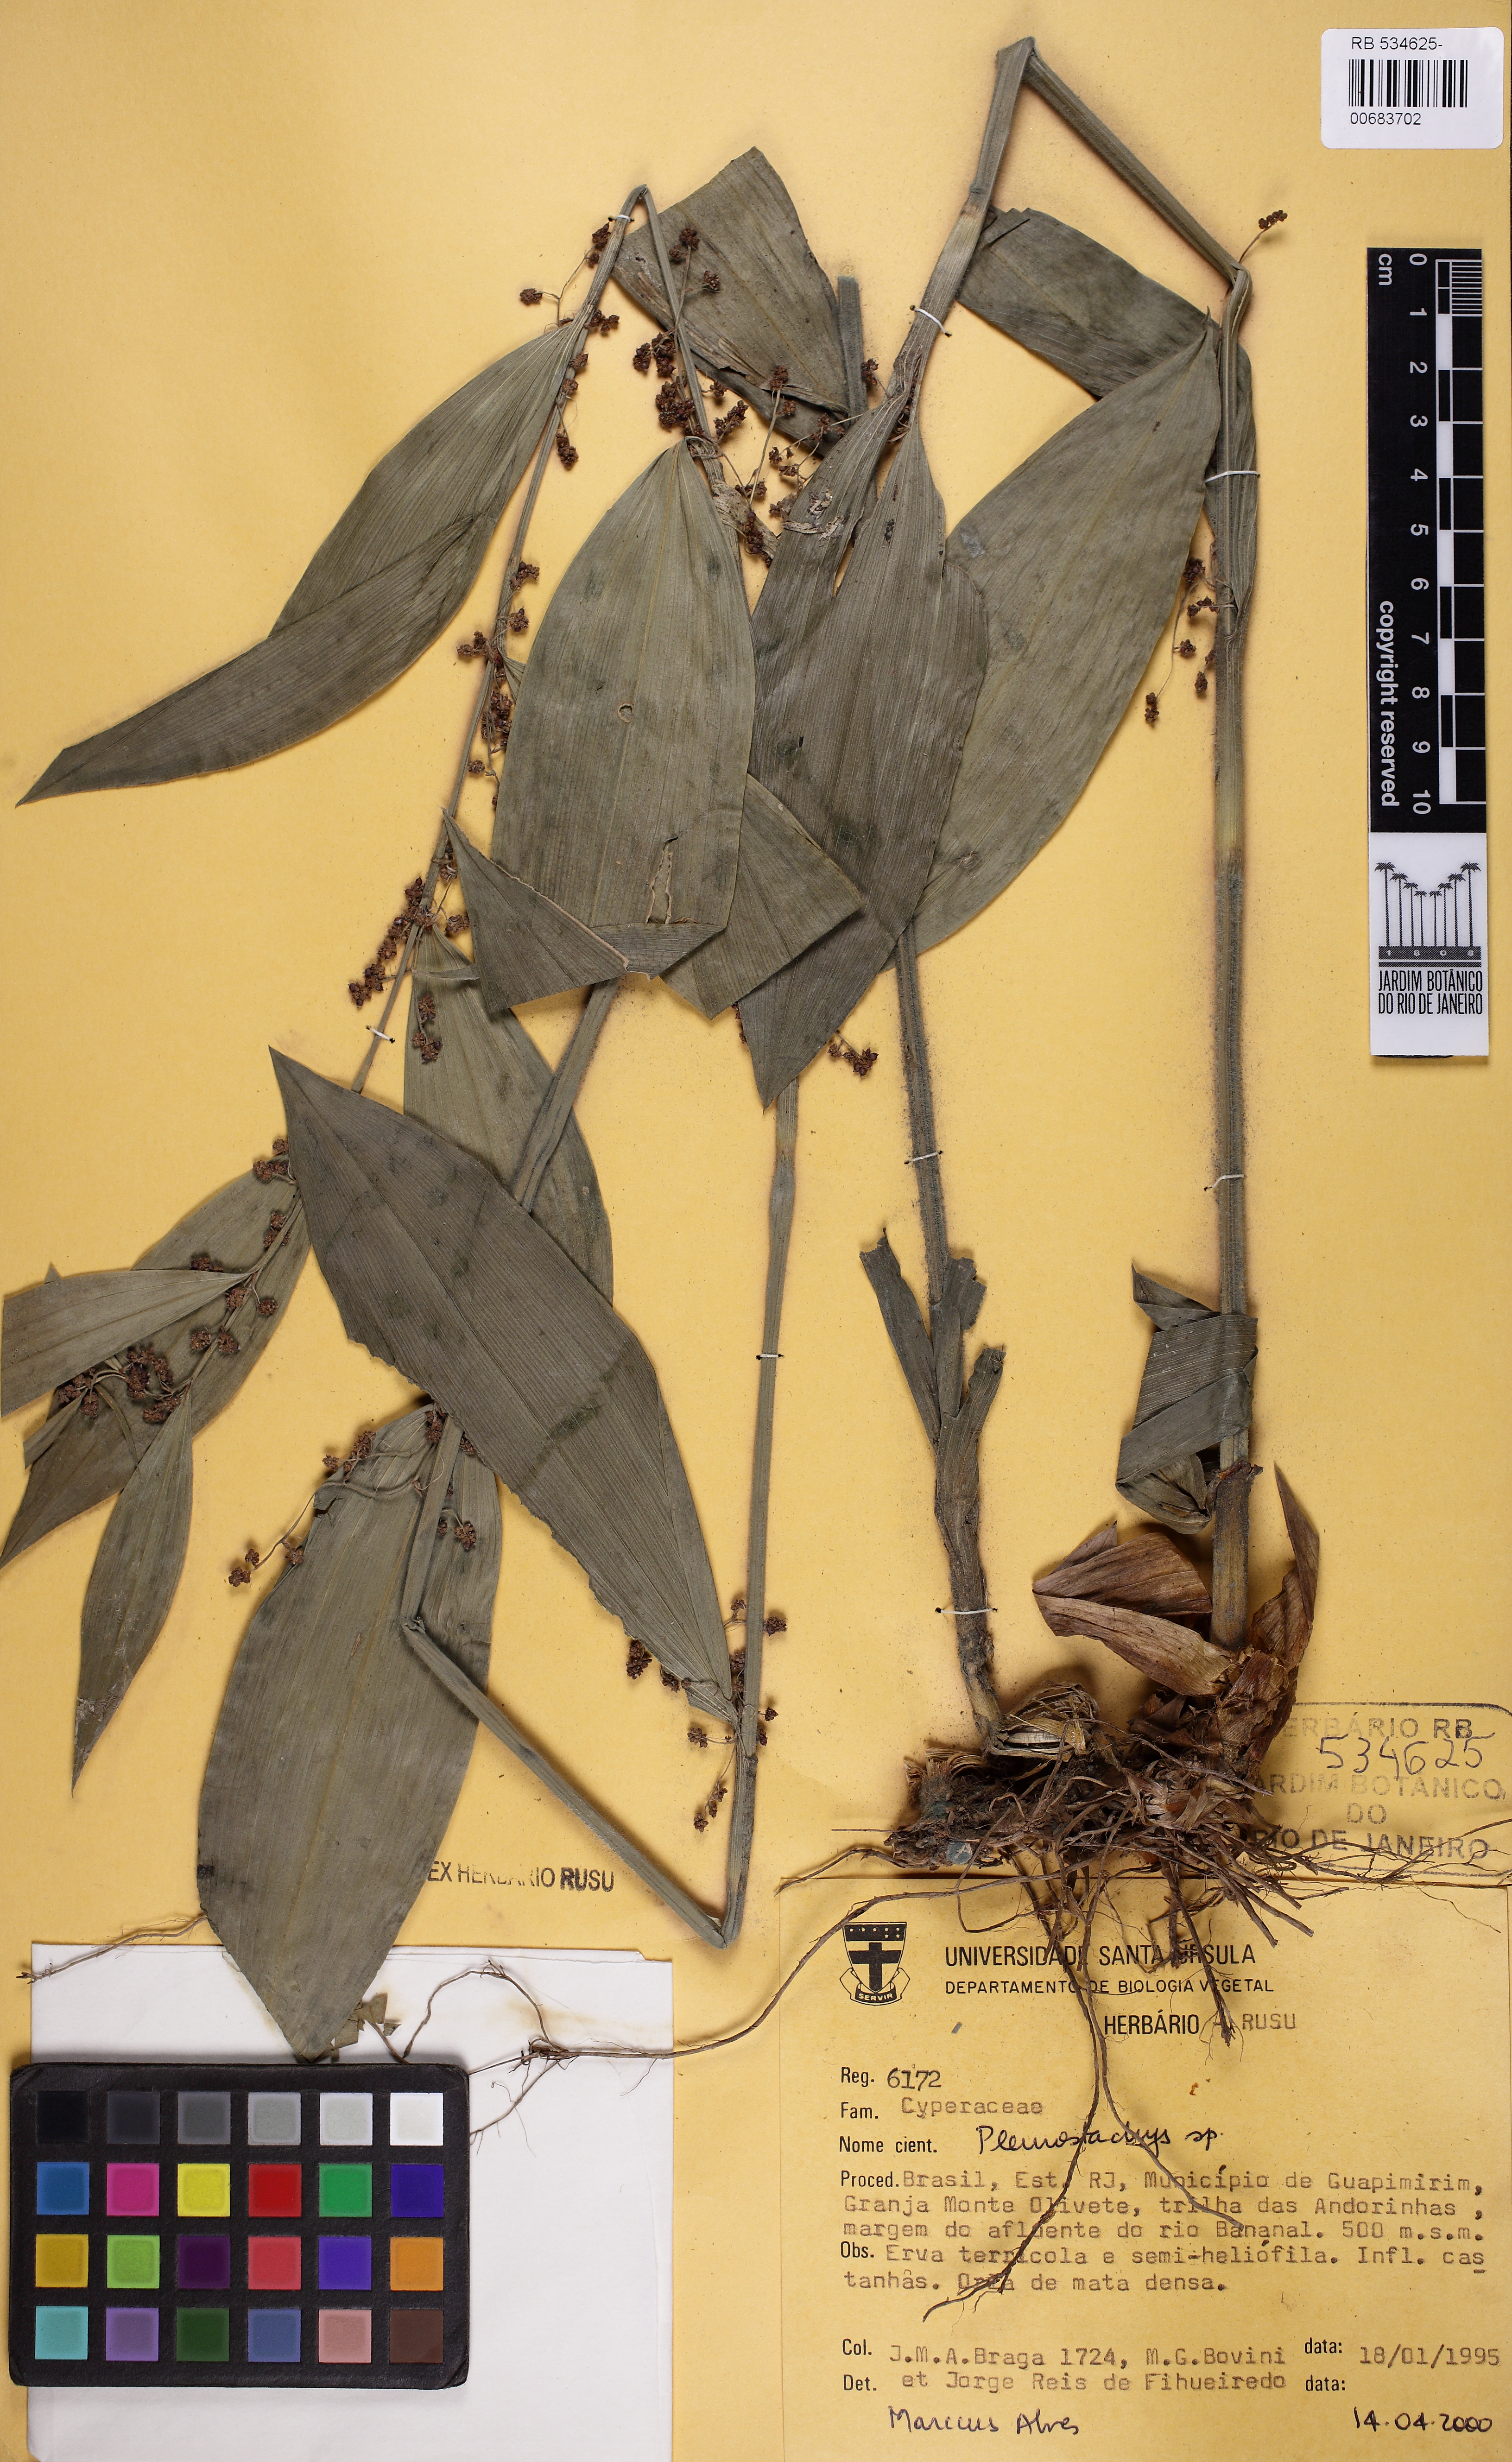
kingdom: Plantae
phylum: Tracheophyta
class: Liliopsida
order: Poales
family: Cyperaceae
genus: Rhynchospora
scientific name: Rhynchospora
